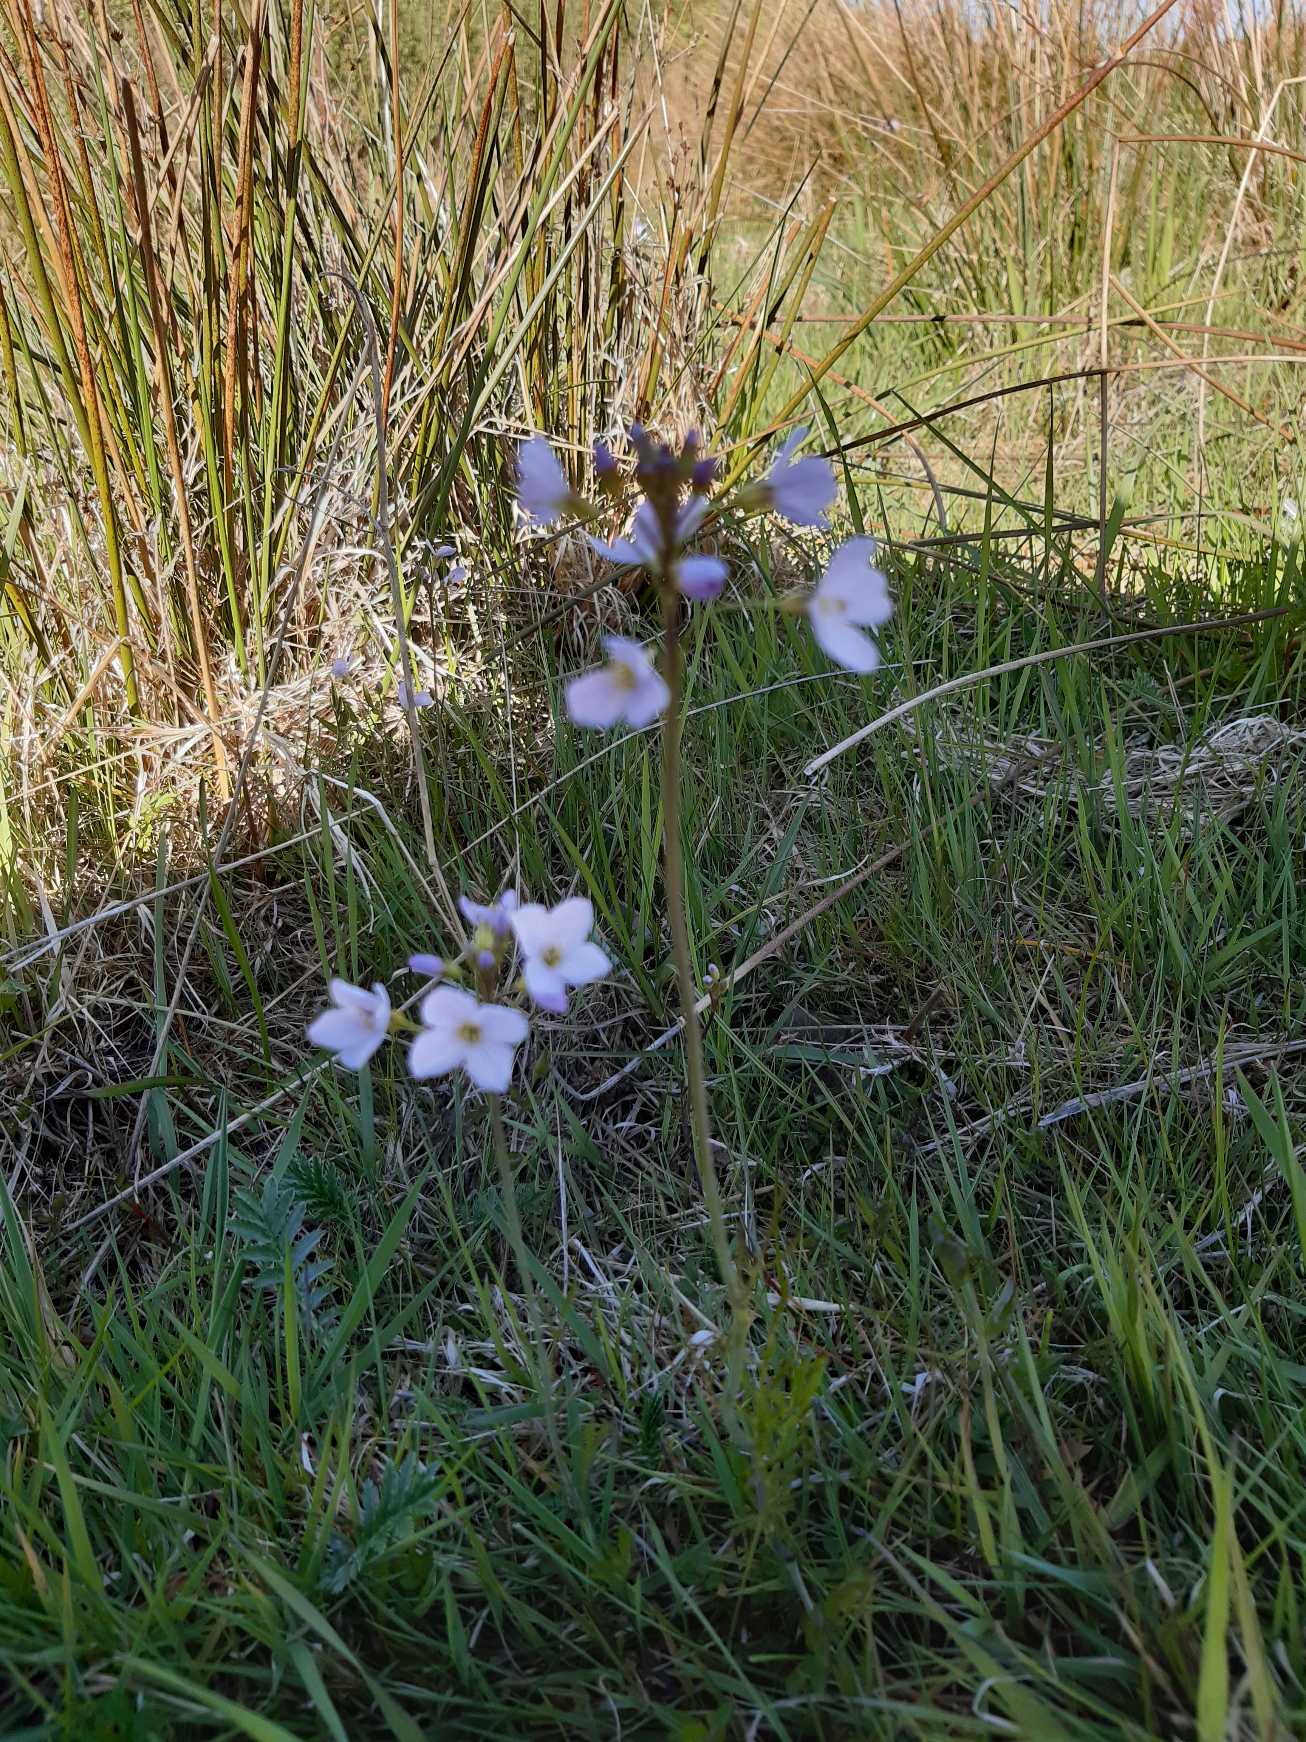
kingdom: Plantae
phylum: Tracheophyta
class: Magnoliopsida
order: Brassicales
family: Brassicaceae
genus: Cardamine
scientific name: Cardamine pratensis
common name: Engkarse
